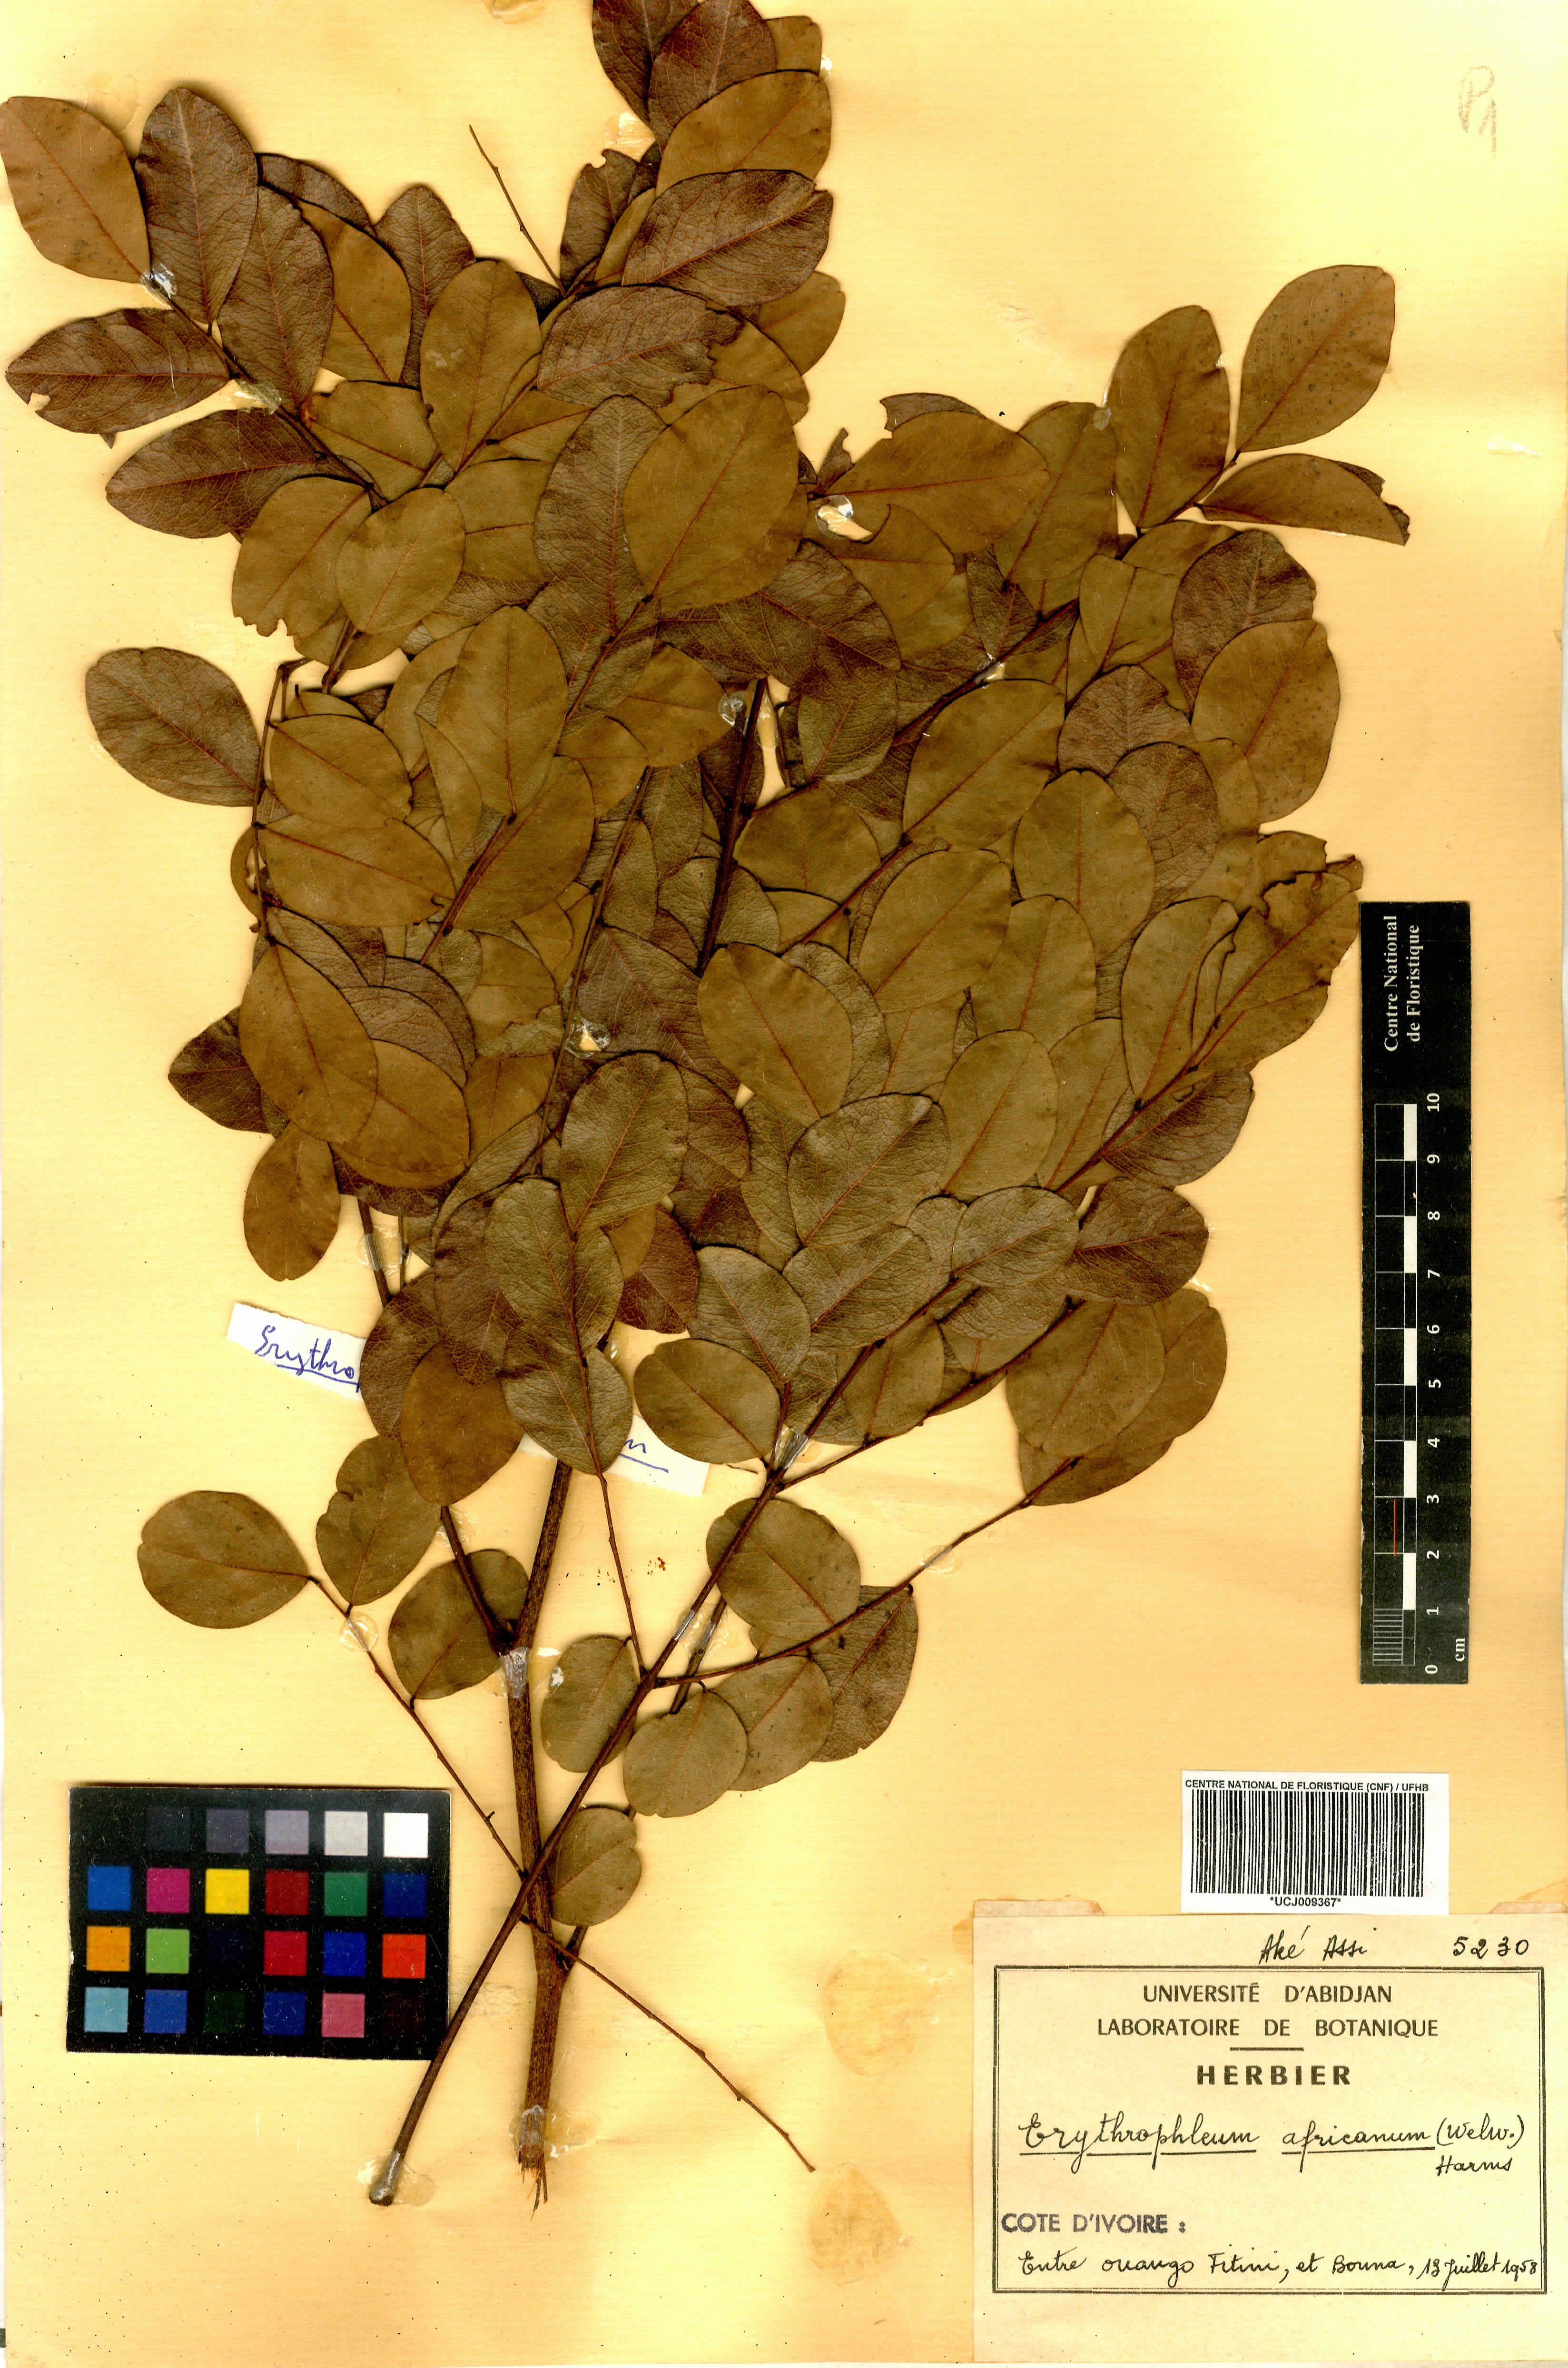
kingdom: Plantae
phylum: Tracheophyta
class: Magnoliopsida
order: Fabales
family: Fabaceae
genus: Erythrophleum
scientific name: Erythrophleum africanum
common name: African blackwood
